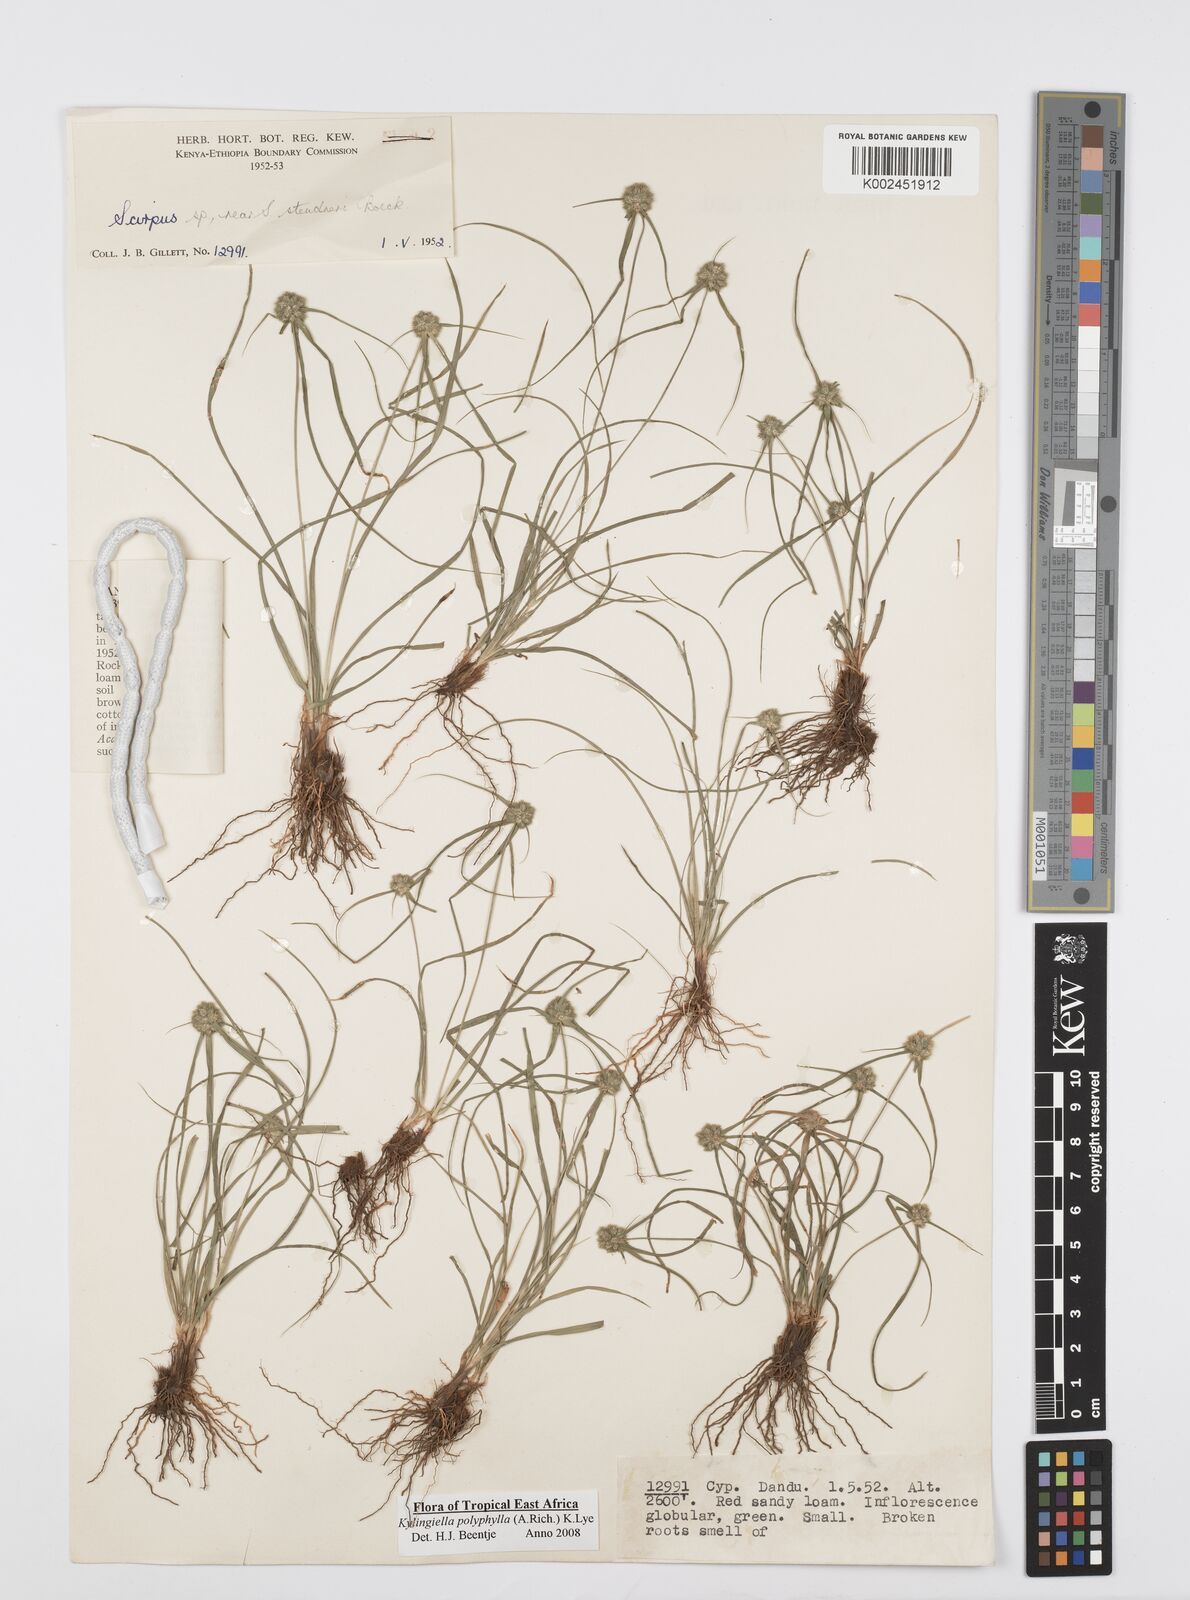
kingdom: Plantae
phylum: Tracheophyta
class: Liliopsida
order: Poales
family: Cyperaceae
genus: Cyperus
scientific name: Cyperus bulbosus
